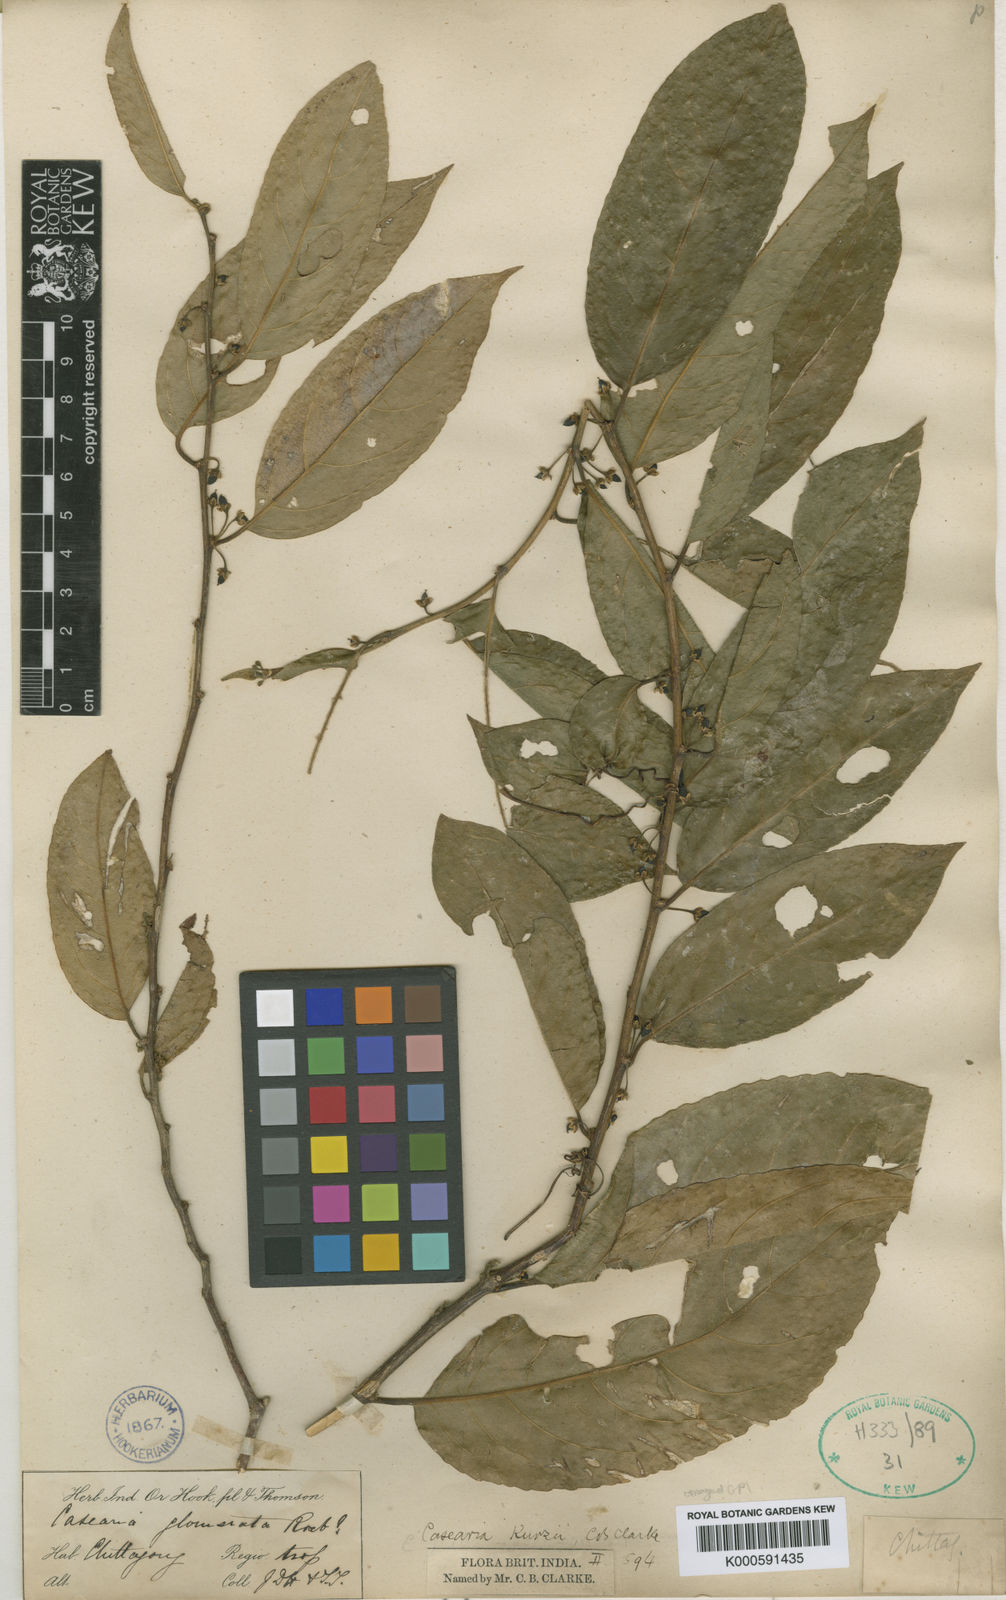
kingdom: Plantae
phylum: Tracheophyta
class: Magnoliopsida
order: Malpighiales
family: Salicaceae
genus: Casearia
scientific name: Casearia glomerata
